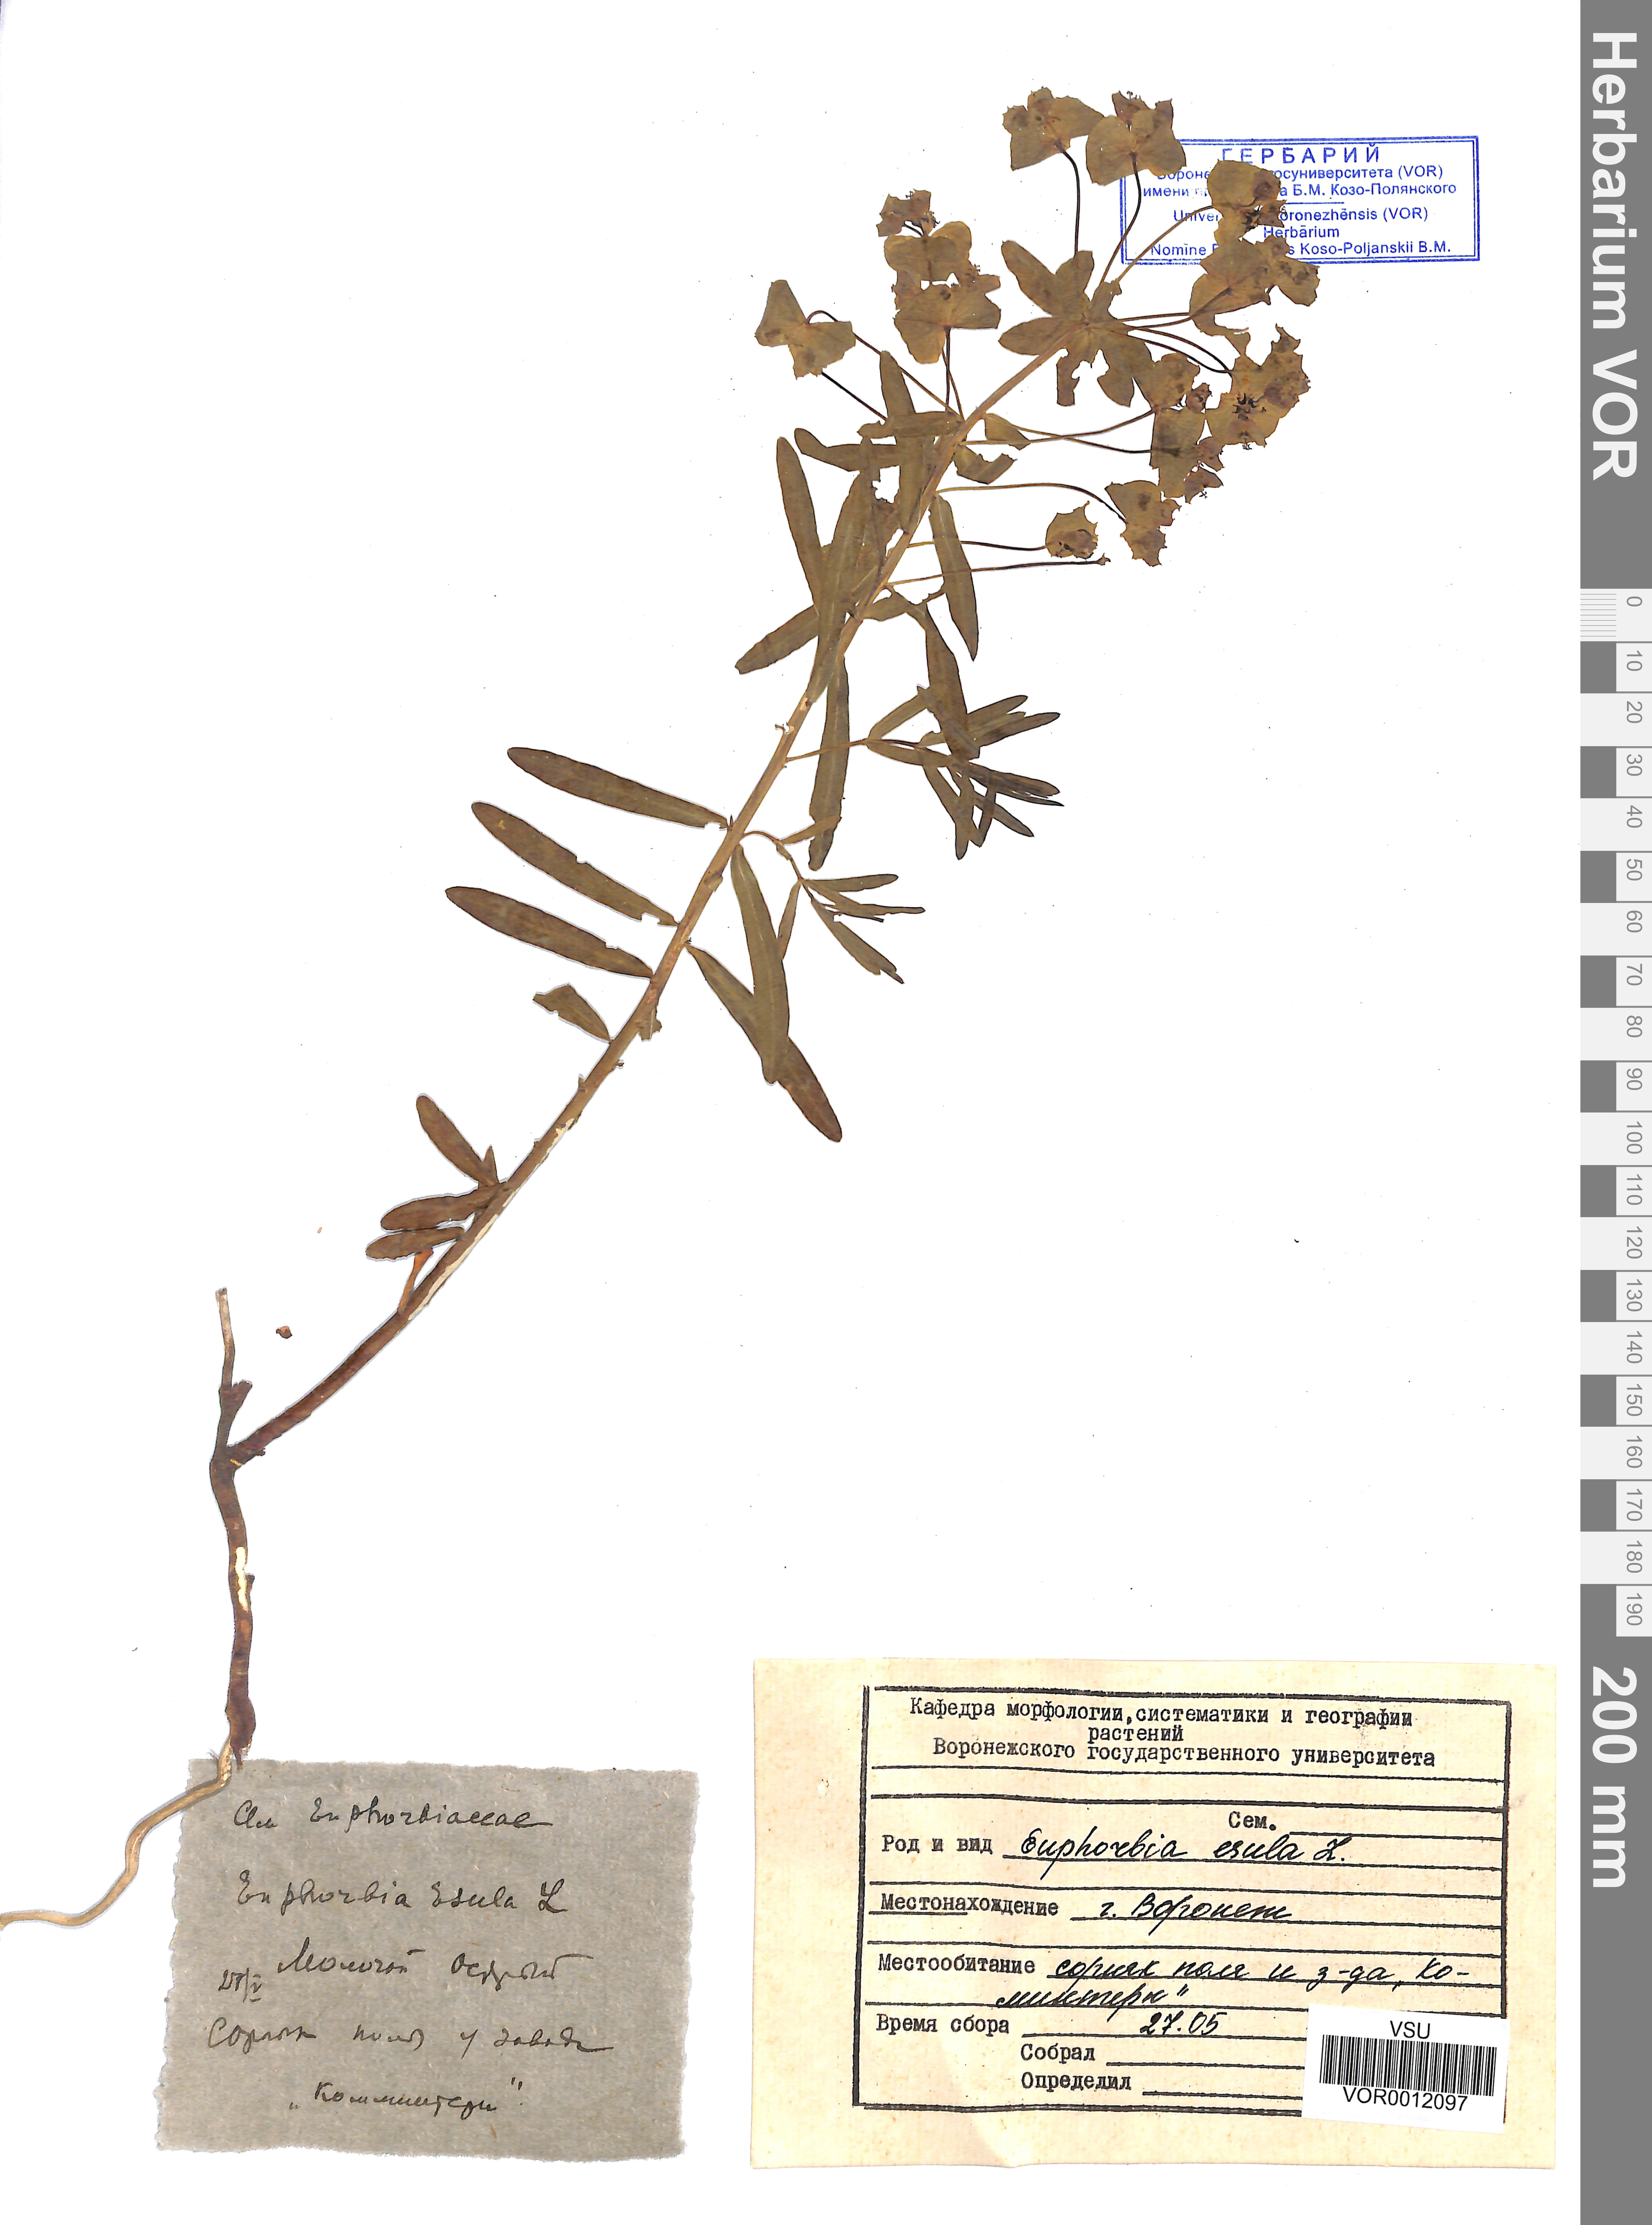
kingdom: Plantae
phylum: Tracheophyta
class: Magnoliopsida
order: Malpighiales
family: Euphorbiaceae
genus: Euphorbia
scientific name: Euphorbia esula
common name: Leafy spurge
